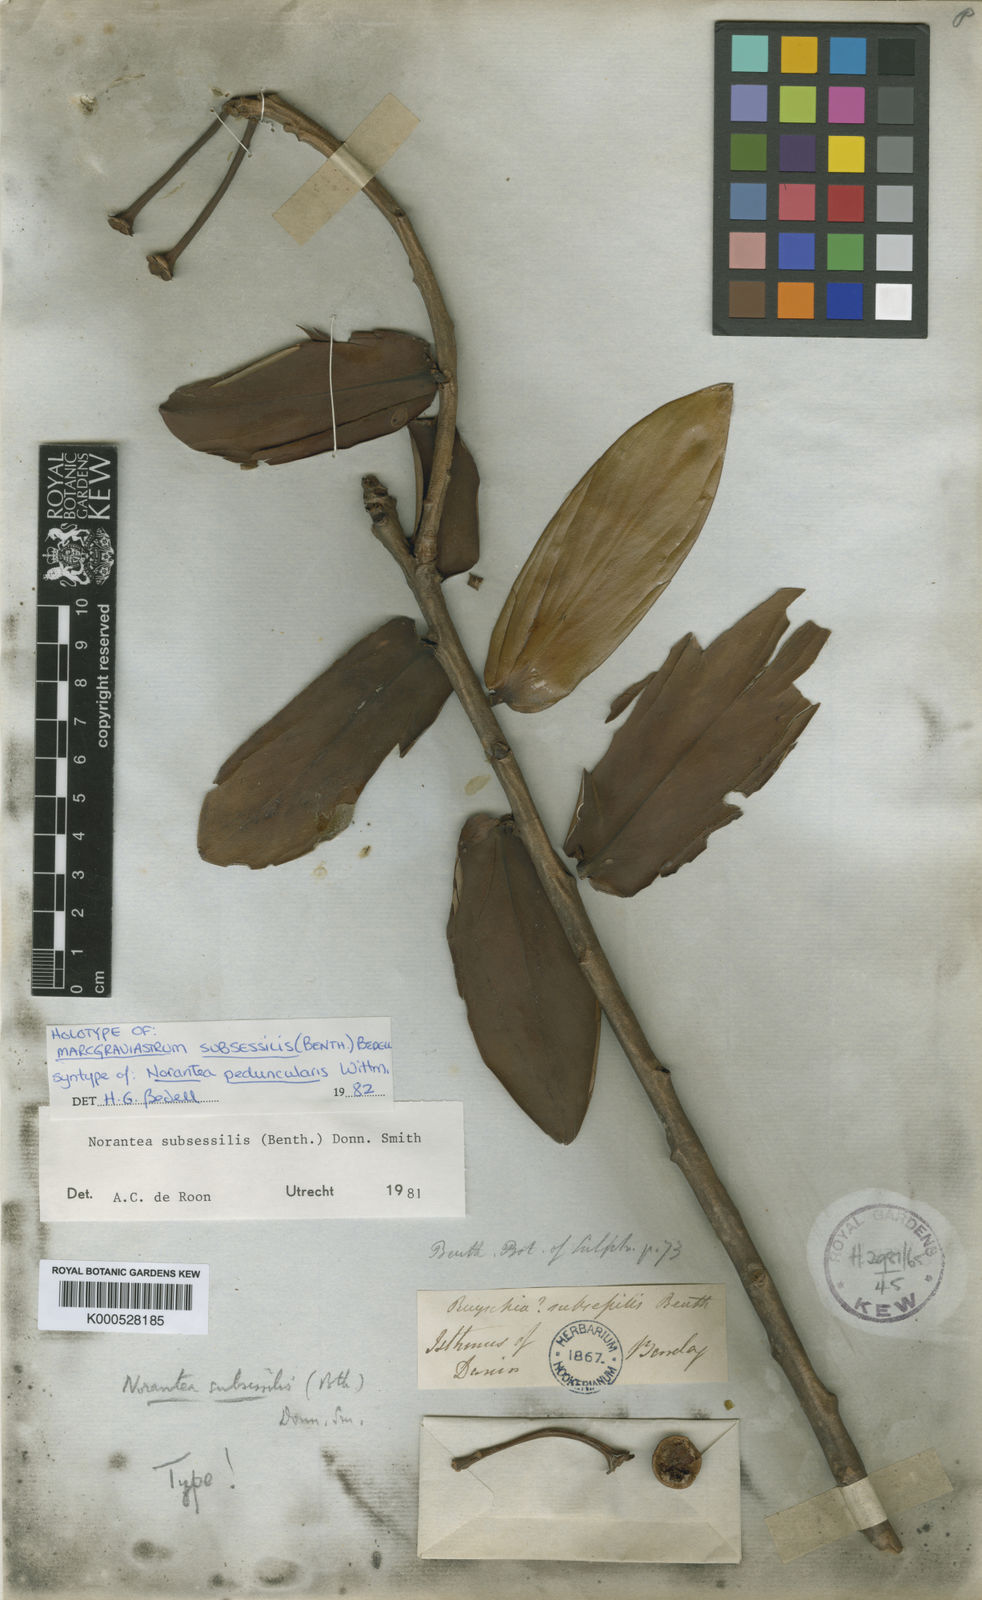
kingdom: Plantae
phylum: Tracheophyta
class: Magnoliopsida
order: Ericales
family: Marcgraviaceae
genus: Marcgraviastrum
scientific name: Marcgraviastrum subsessile
